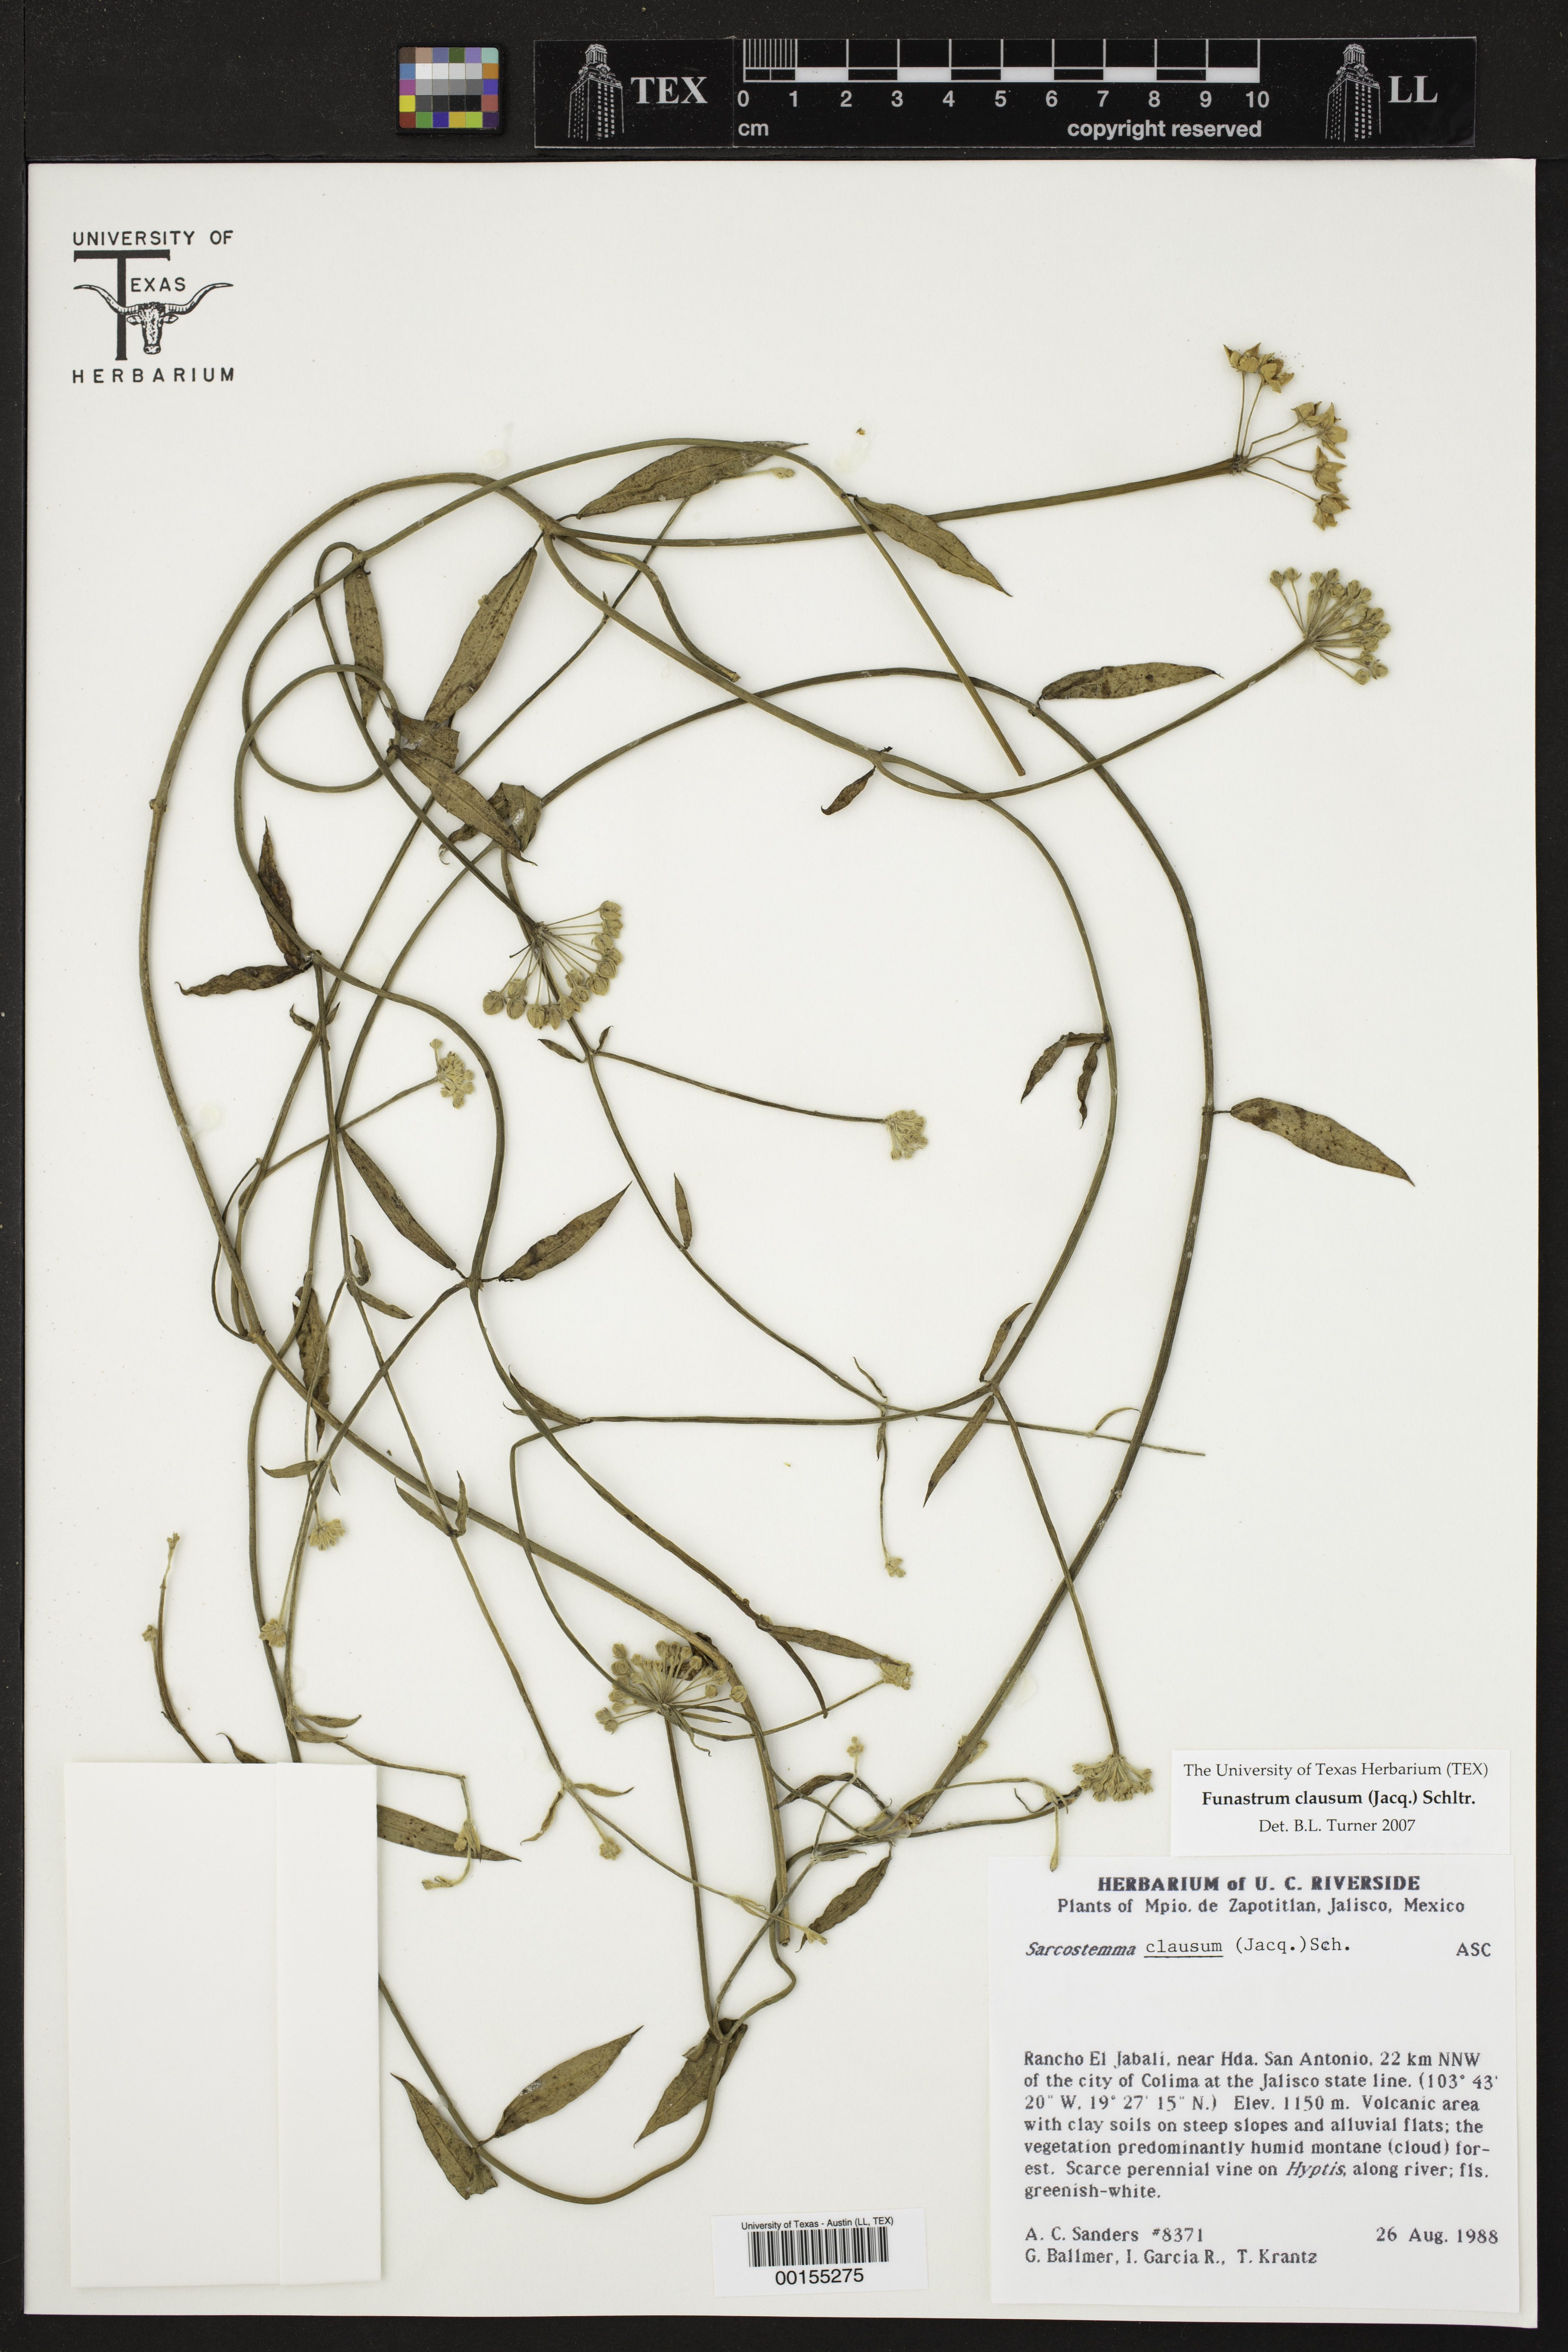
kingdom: Plantae
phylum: Tracheophyta
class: Magnoliopsida
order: Gentianales
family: Apocynaceae
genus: Funastrum
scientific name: Funastrum clausum
